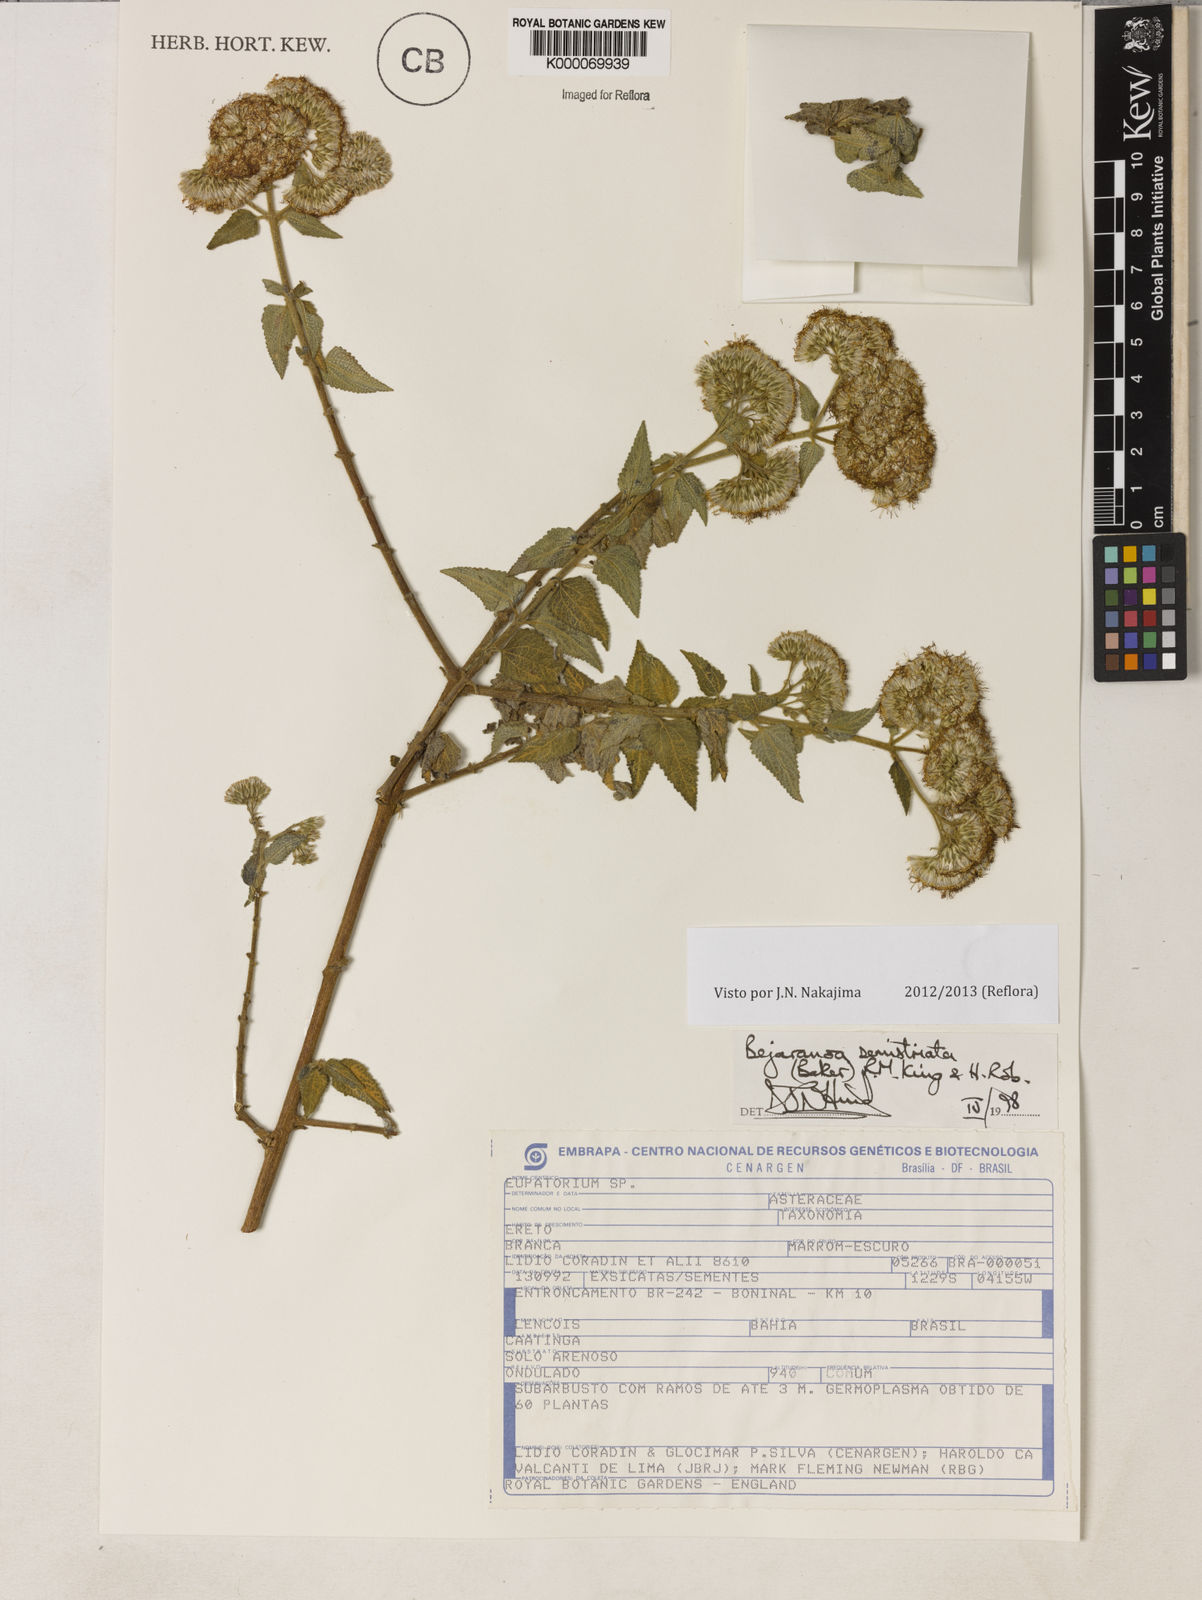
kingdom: Plantae
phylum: Tracheophyta
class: Magnoliopsida
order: Asterales
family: Asteraceae
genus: Bejaranoa
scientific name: Bejaranoa semistriata
